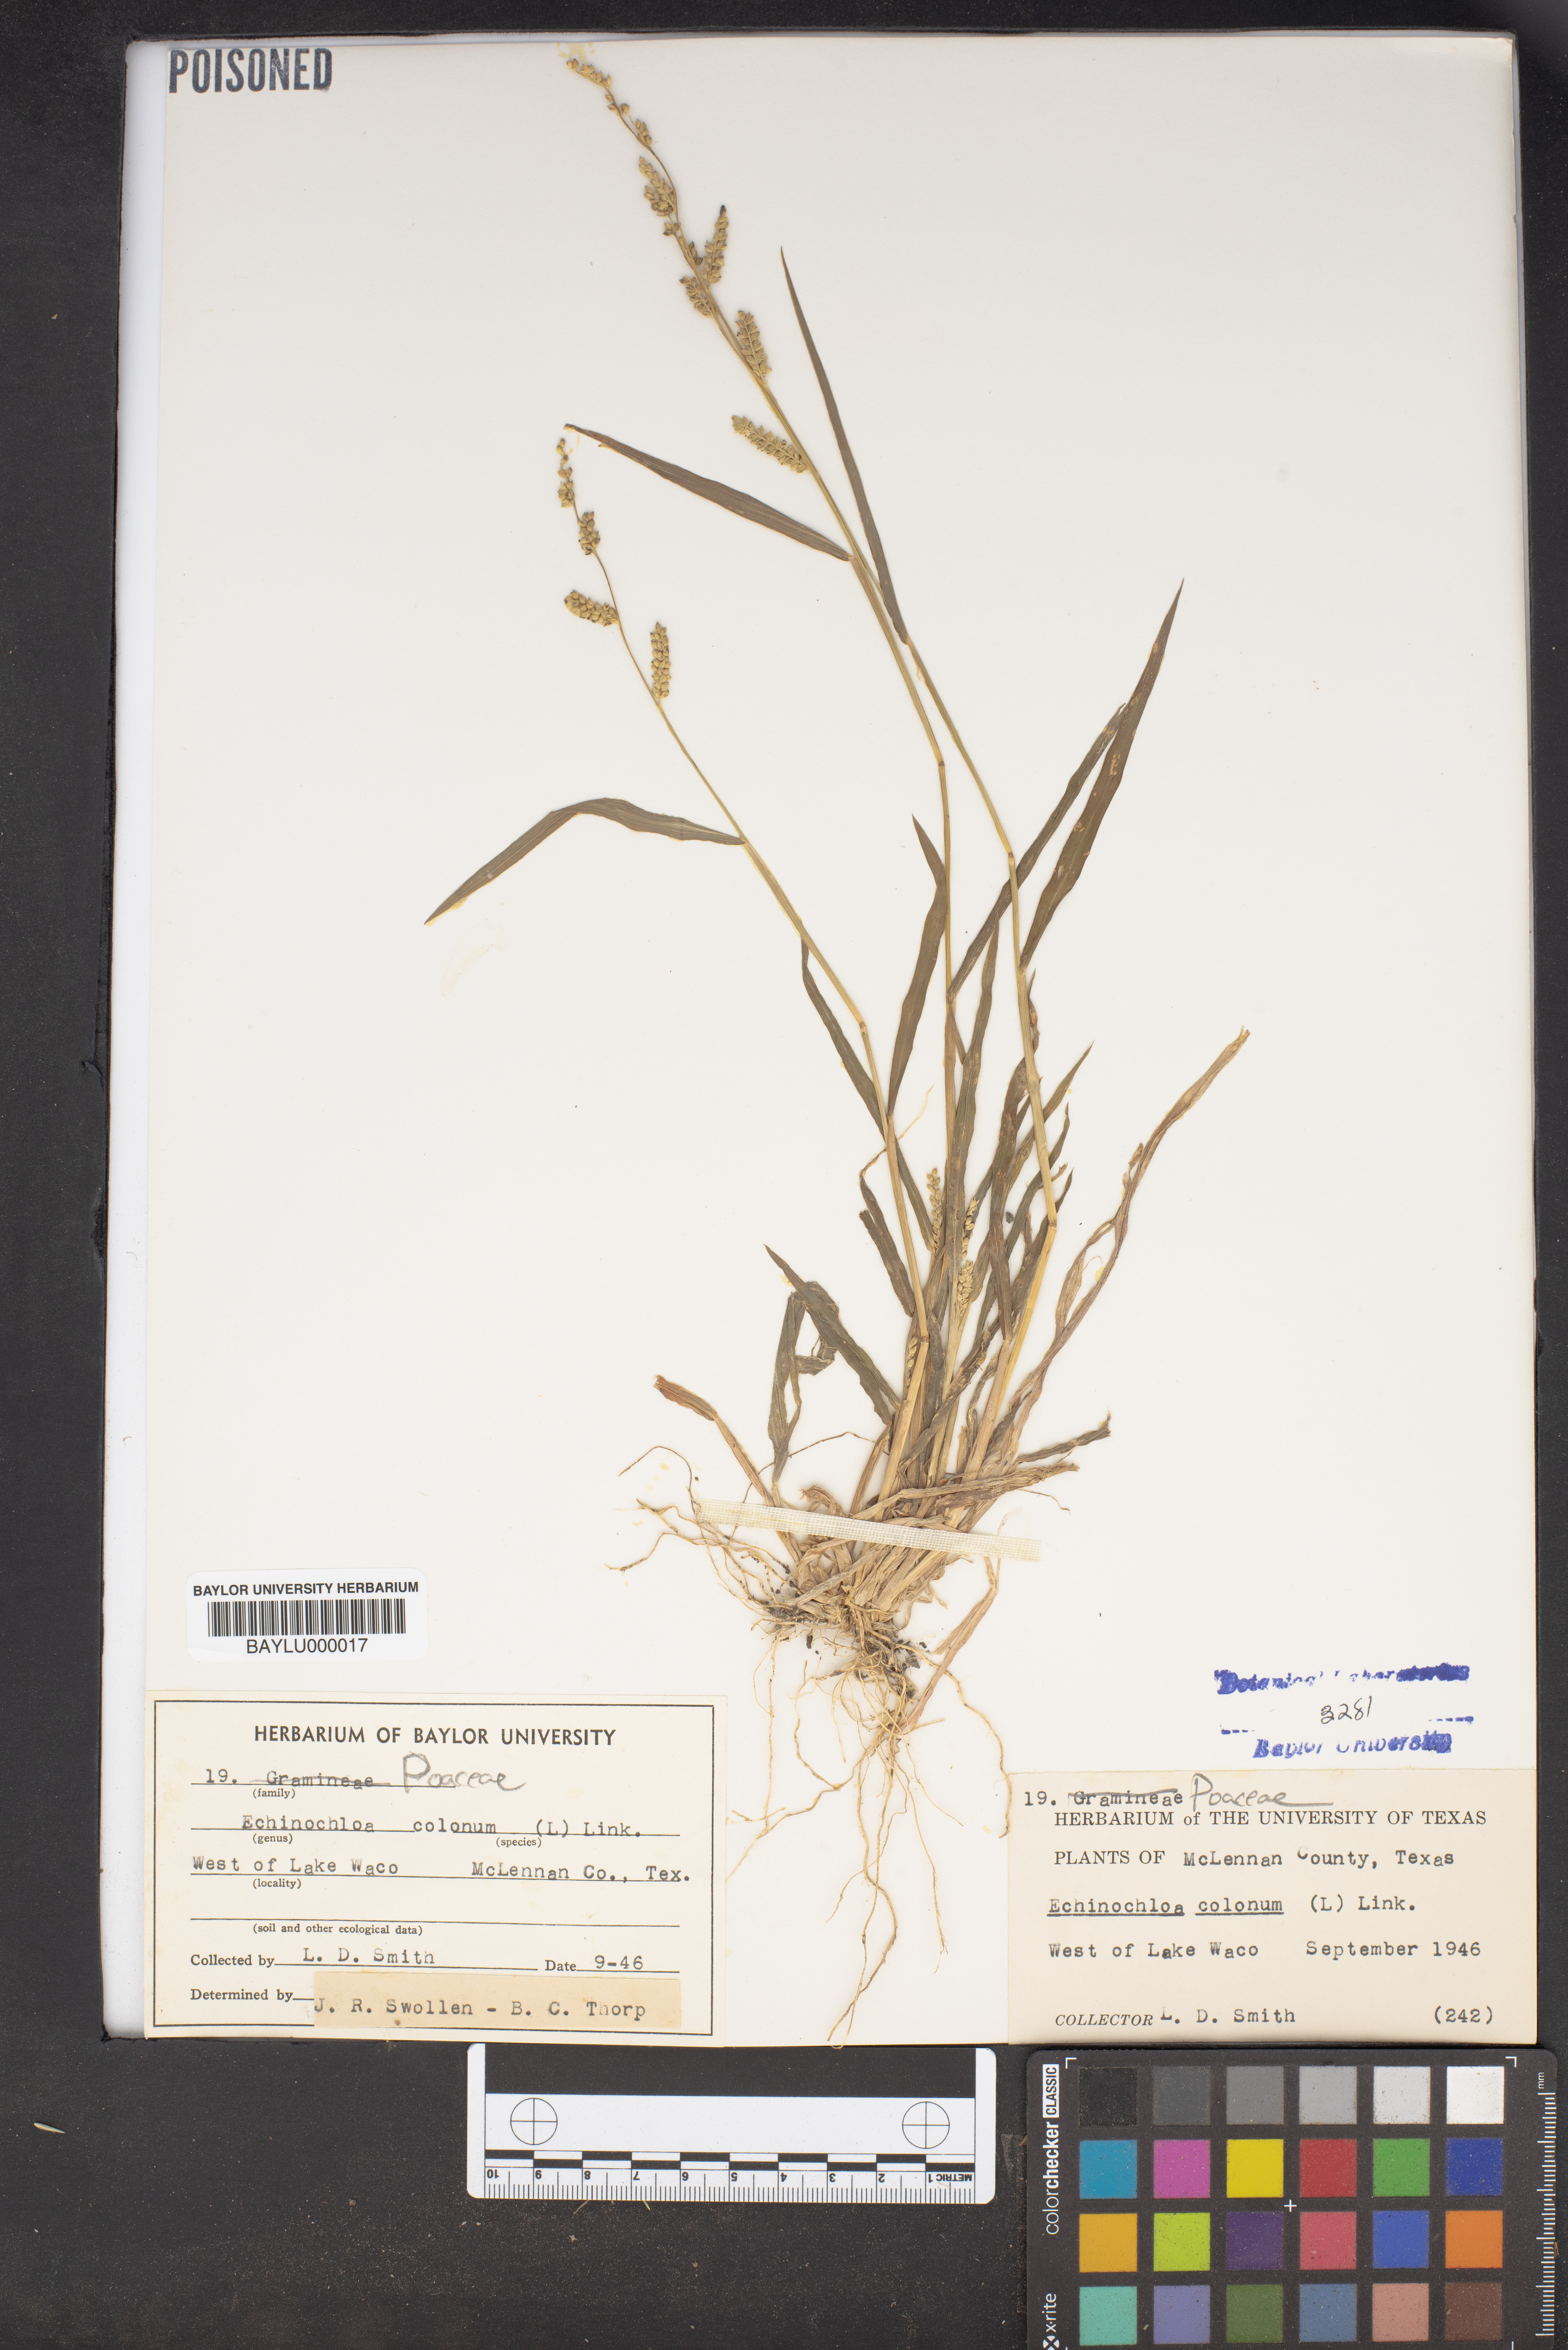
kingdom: Plantae
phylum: Tracheophyta
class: Liliopsida
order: Poales
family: Poaceae
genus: Echinochloa
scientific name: Echinochloa colonum
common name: Jungle rice
